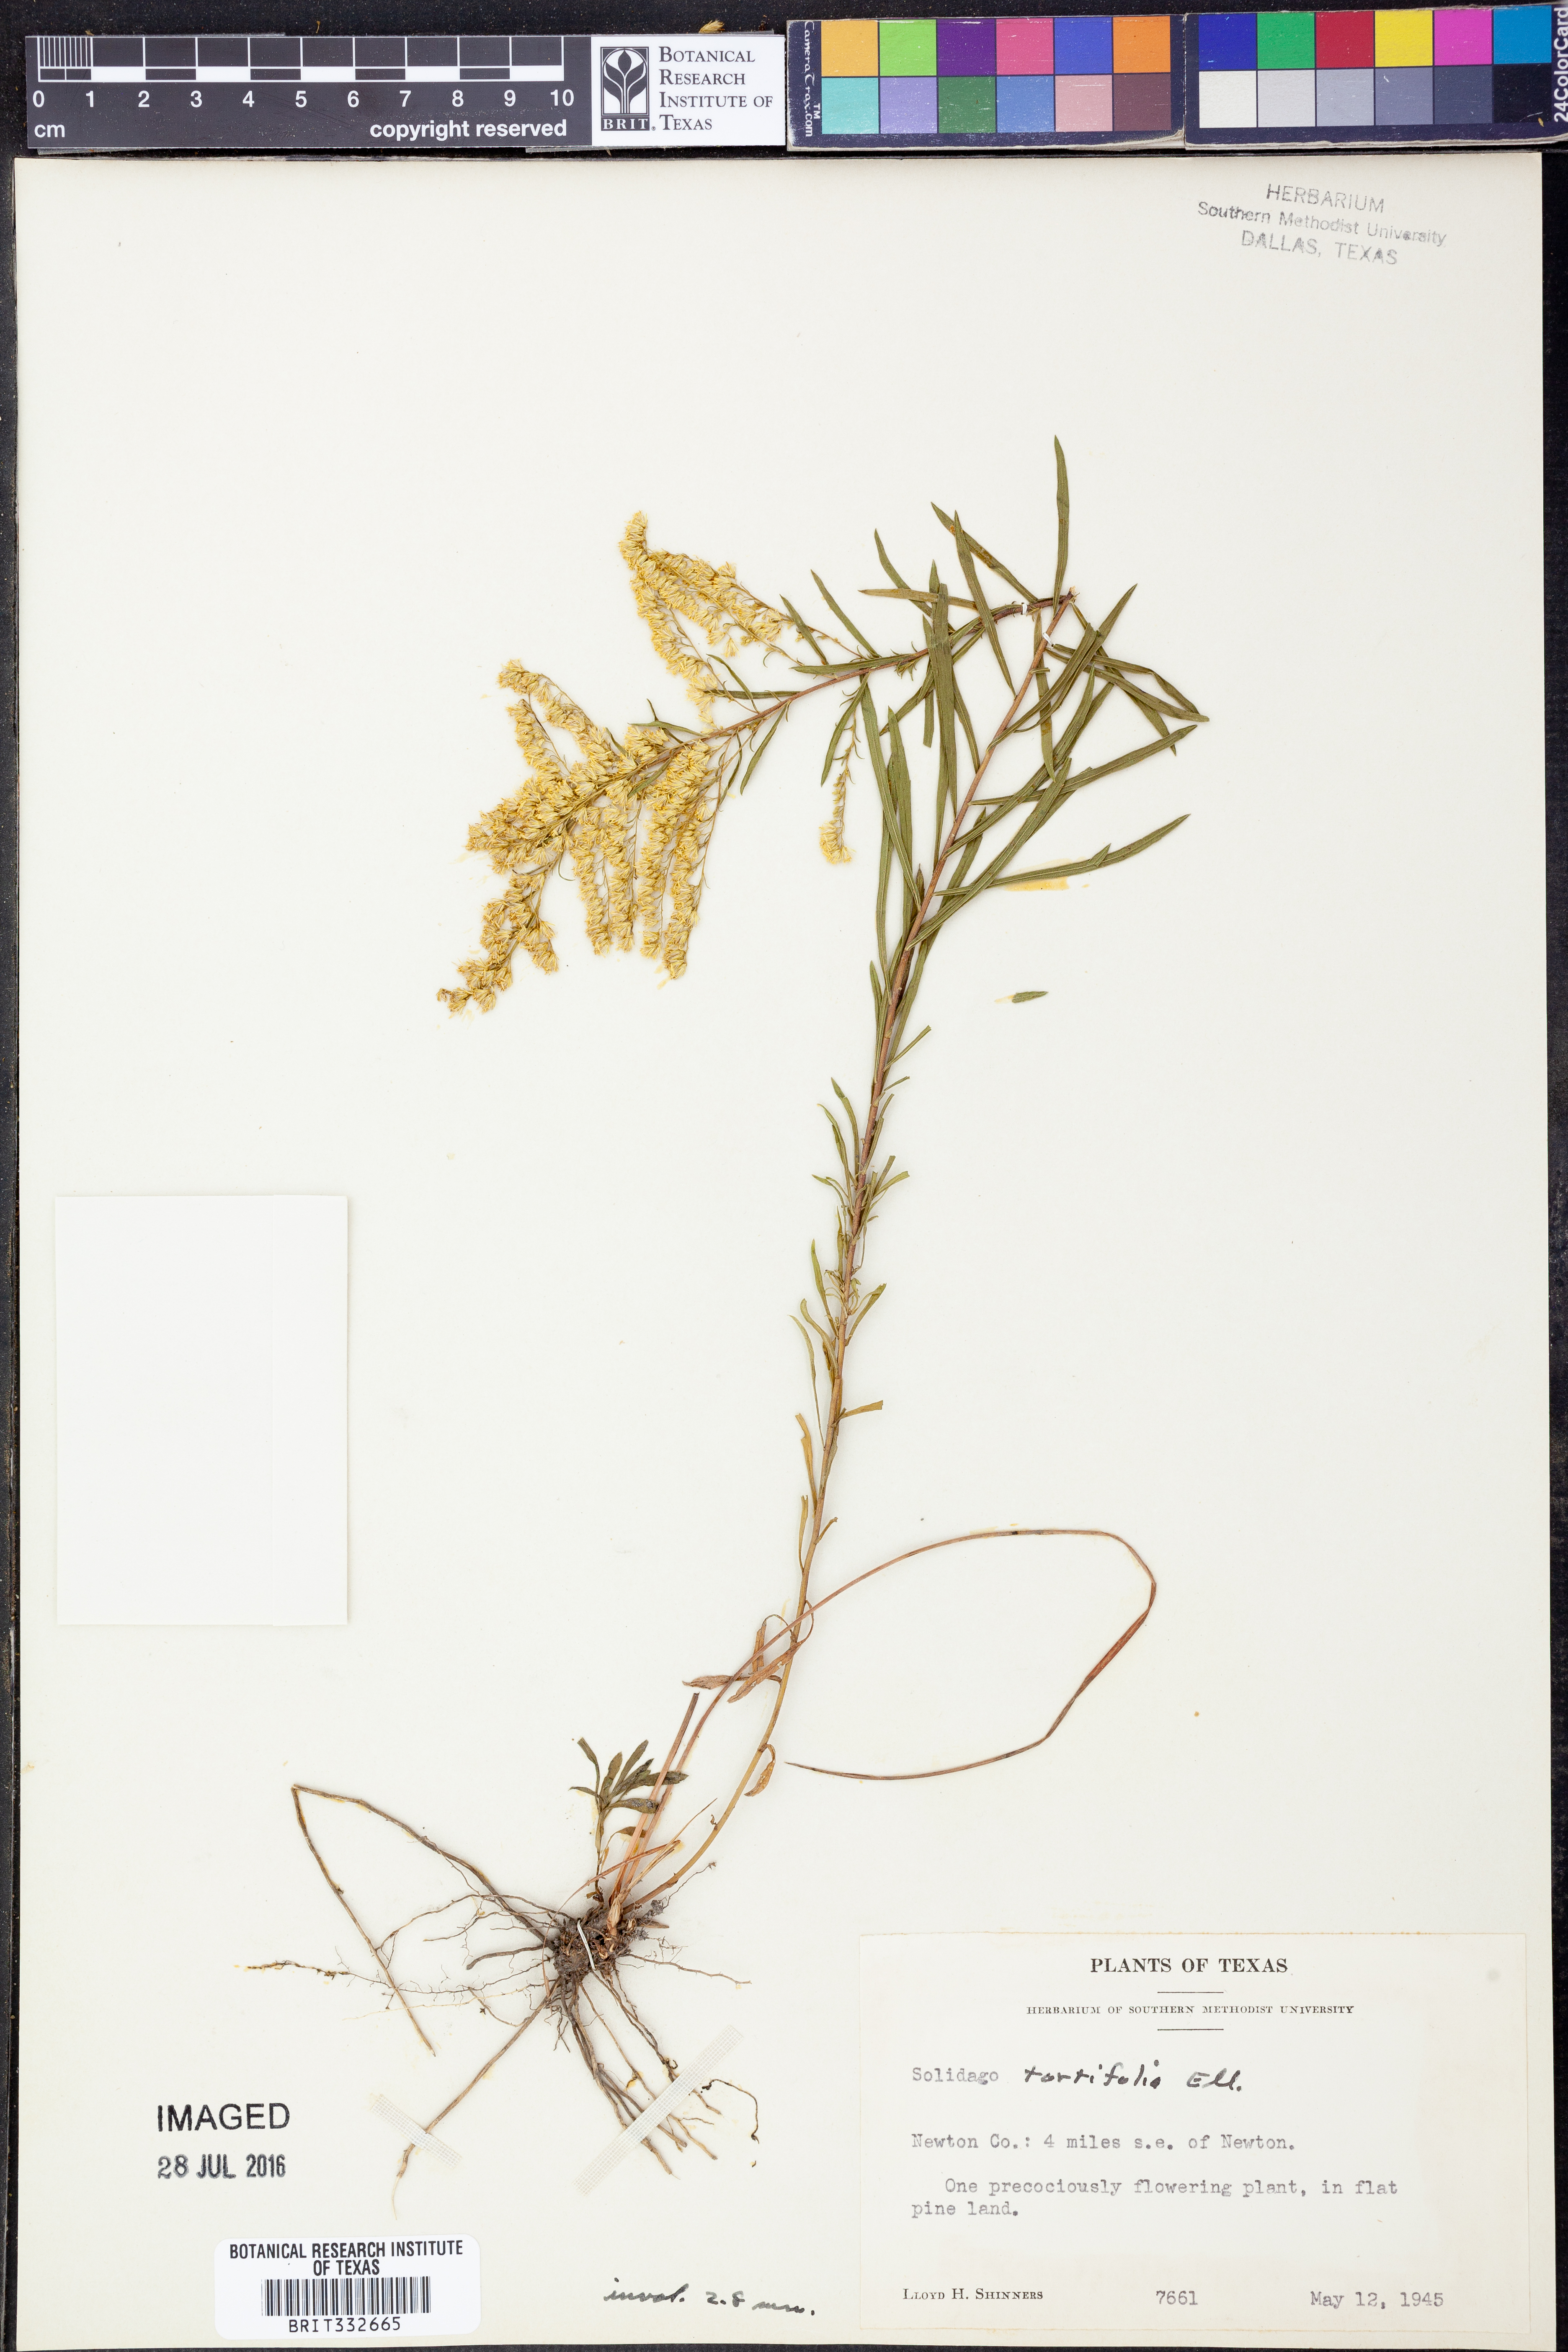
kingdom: Plantae
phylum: Tracheophyta
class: Magnoliopsida
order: Asterales
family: Asteraceae
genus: Solidago
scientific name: Solidago tortifolia
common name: Twisted-leaf goldenrod
